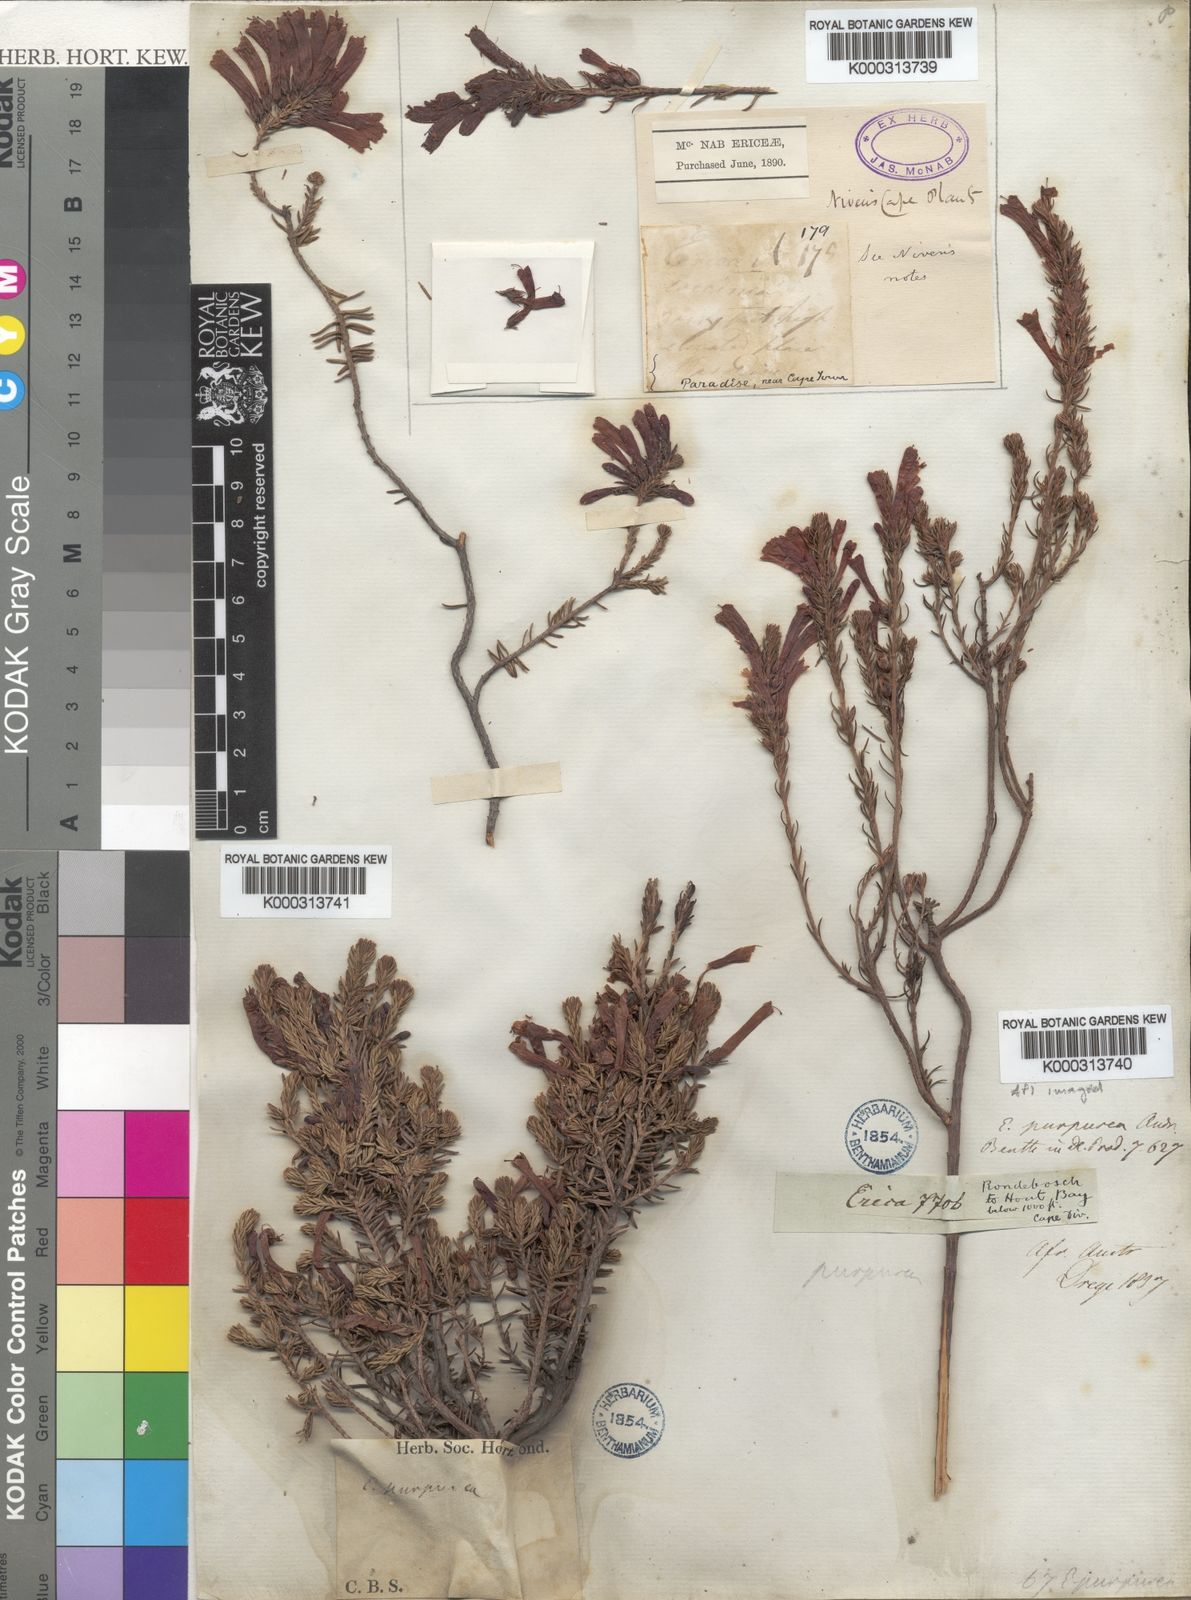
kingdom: Plantae
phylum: Tracheophyta
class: Magnoliopsida
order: Ericales
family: Ericaceae
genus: Erica
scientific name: Erica abietina
